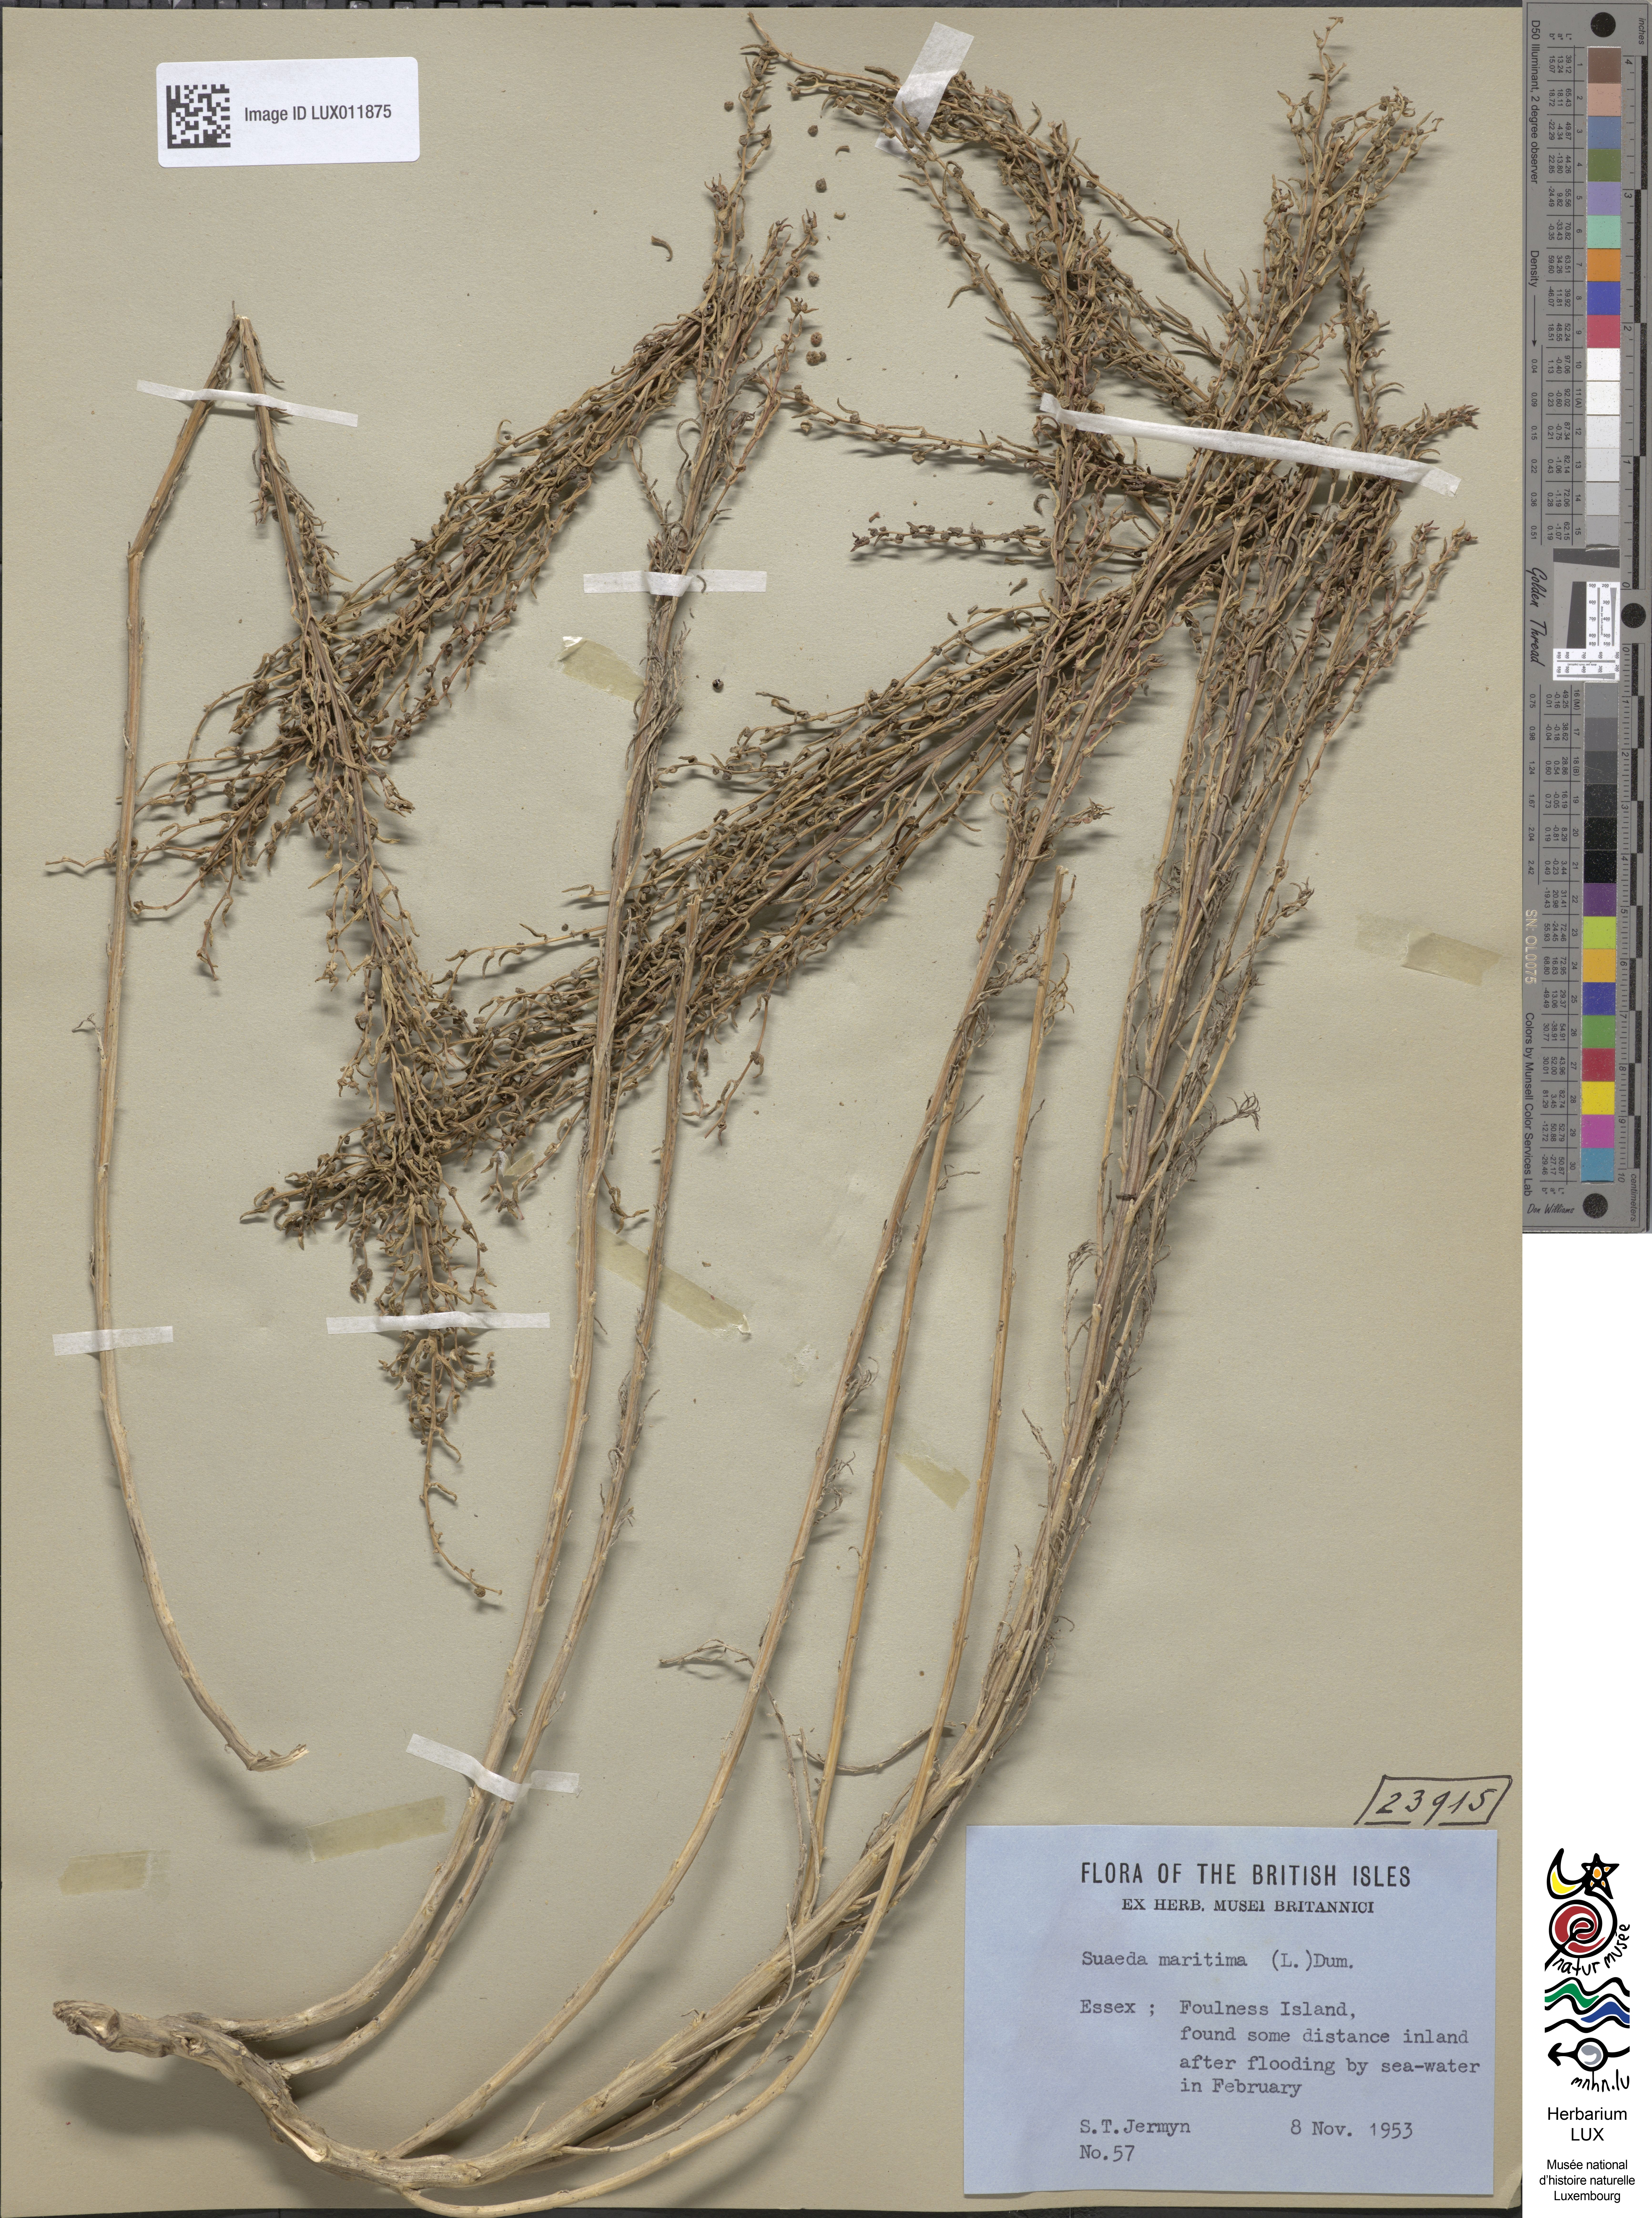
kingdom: Plantae
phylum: Tracheophyta
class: Magnoliopsida
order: Caryophyllales
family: Amaranthaceae
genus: Suaeda
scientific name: Suaeda maritima
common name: Annual sea-blite
